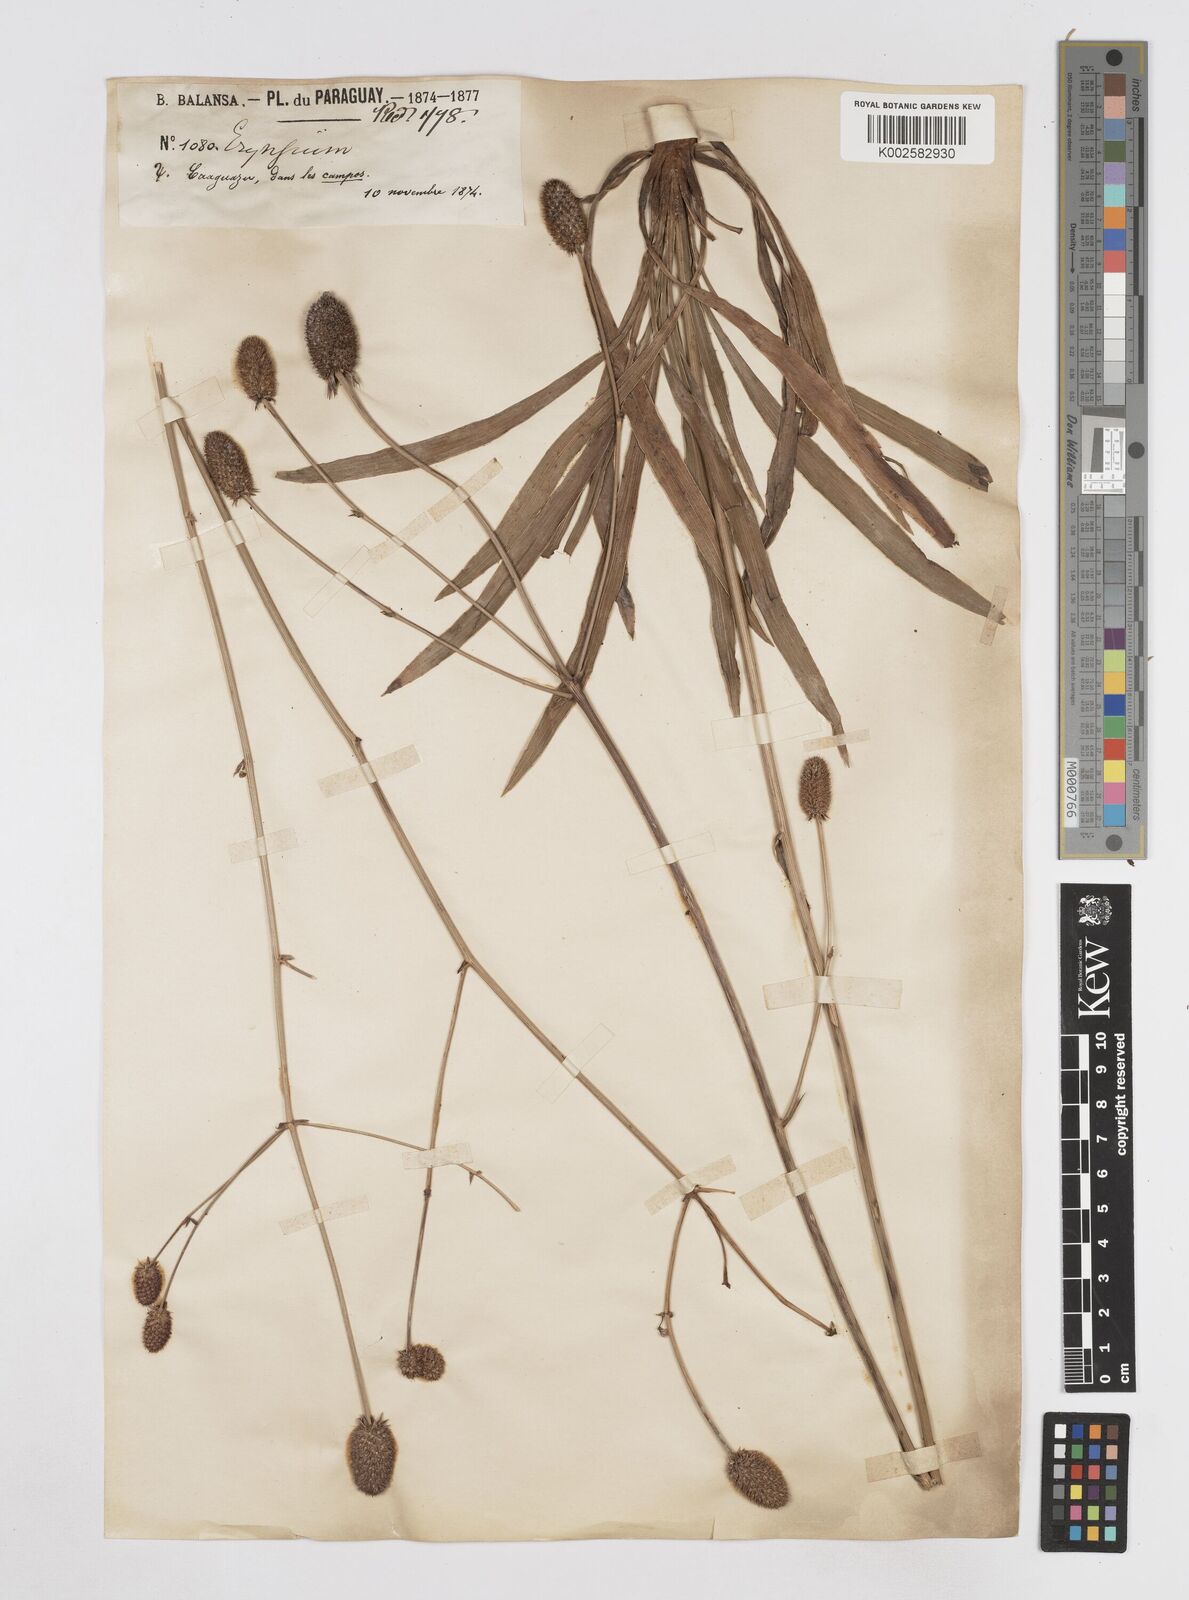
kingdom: Plantae
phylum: Tracheophyta
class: Magnoliopsida
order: Apiales
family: Apiaceae
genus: Eryngium
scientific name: Eryngium sanguisorba
